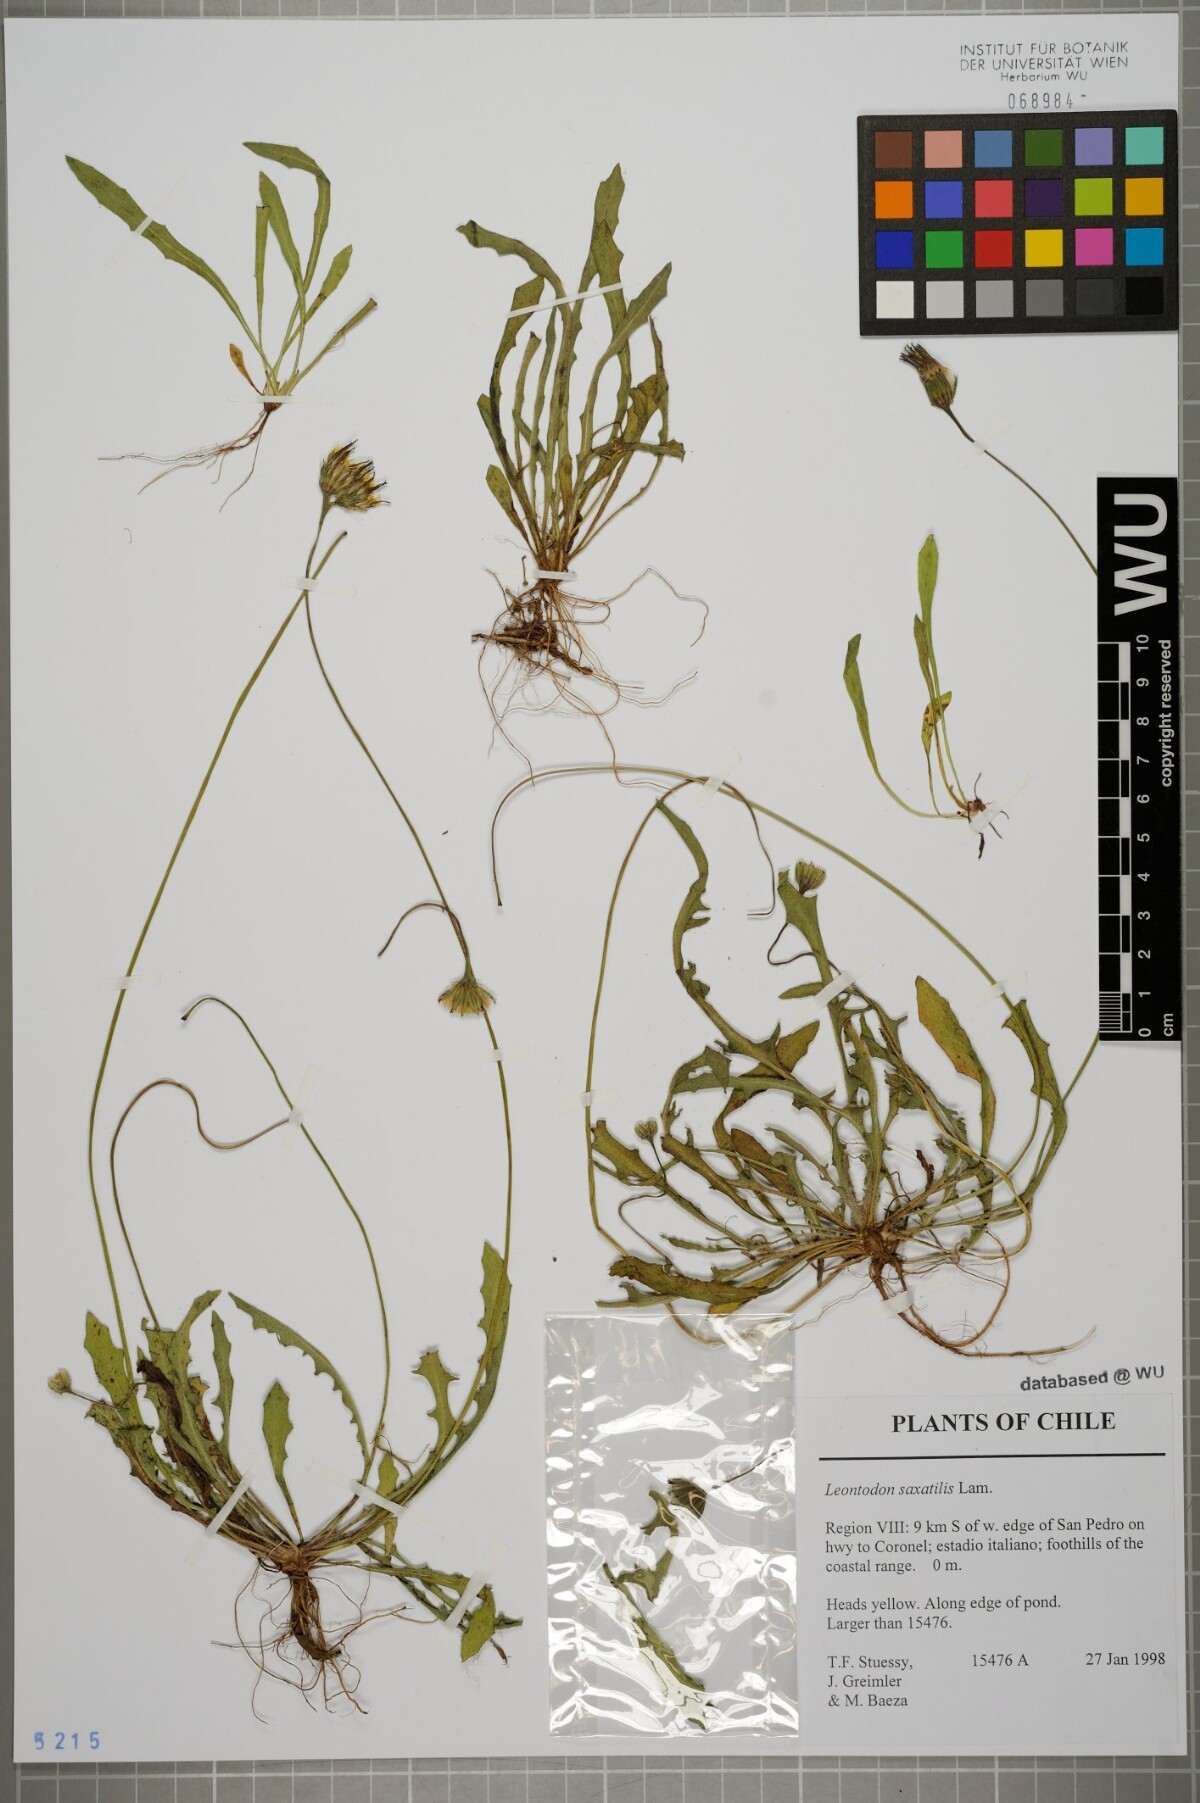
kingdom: Plantae
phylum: Tracheophyta
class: Magnoliopsida
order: Asterales
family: Asteraceae
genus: Thrincia
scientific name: Thrincia saxatilis
